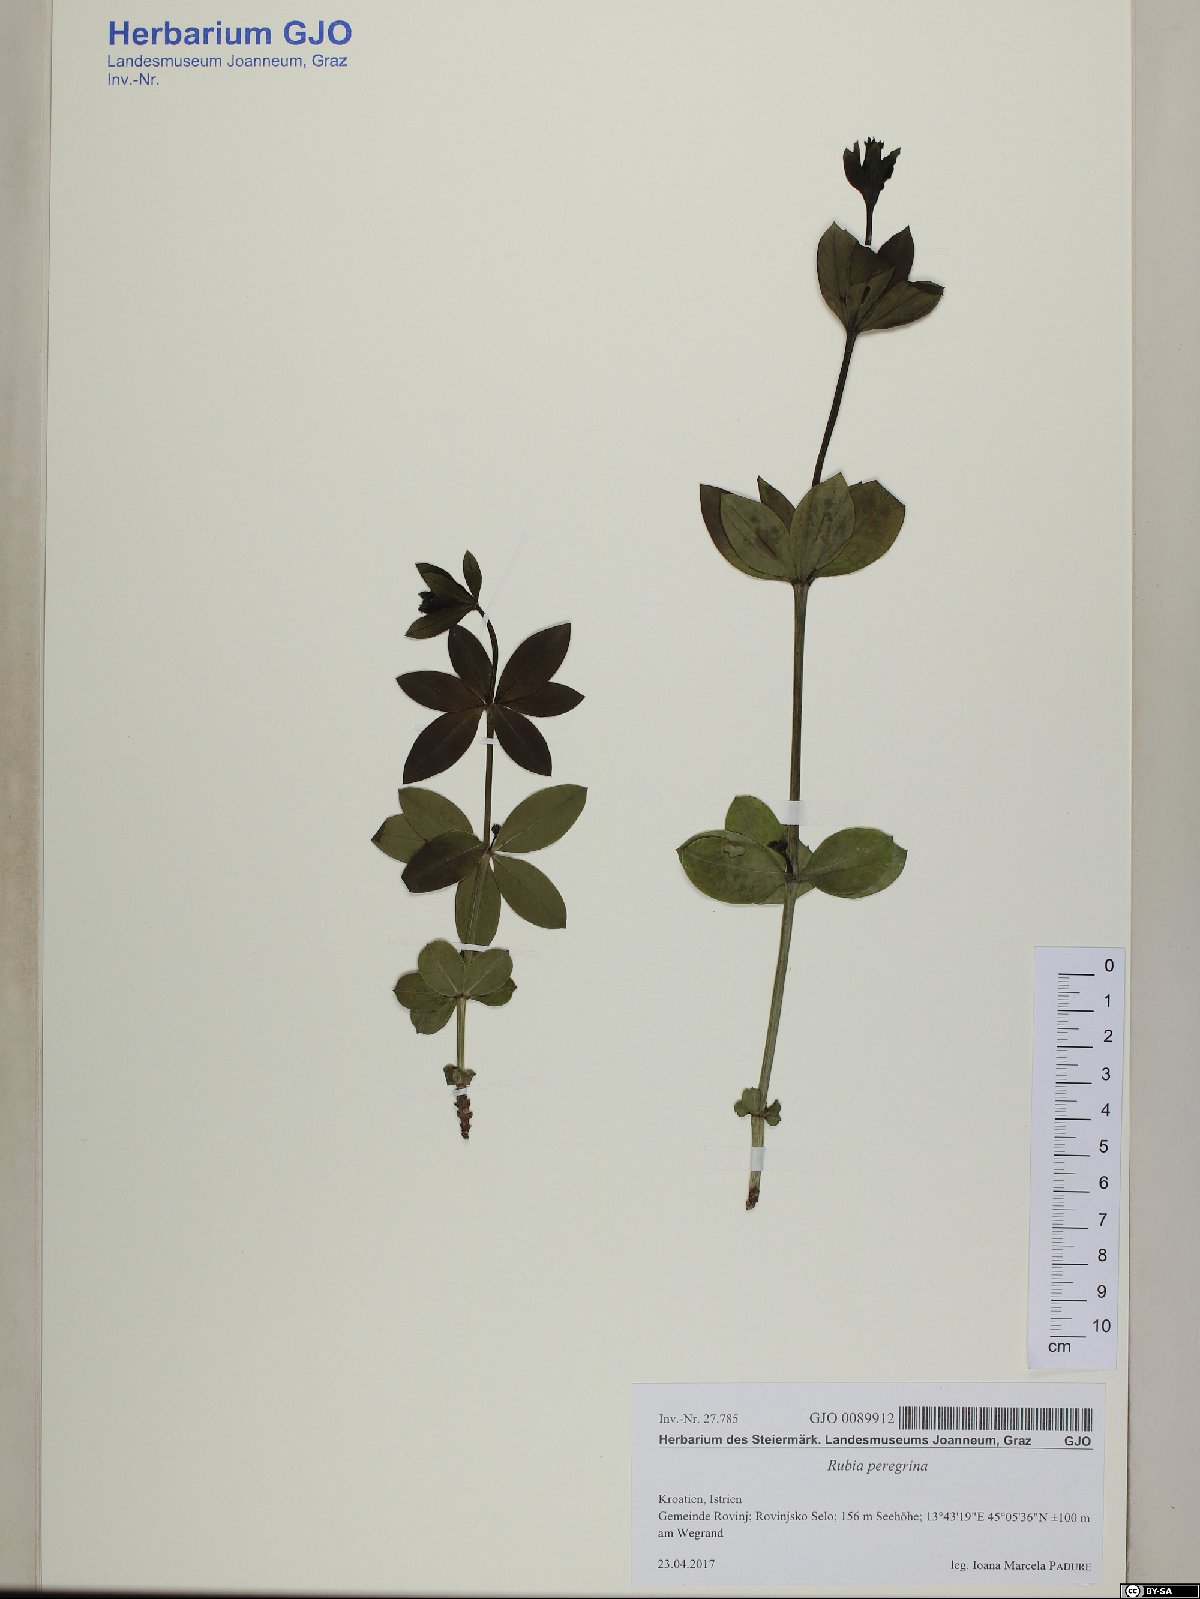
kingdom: Plantae
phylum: Tracheophyta
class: Magnoliopsida
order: Gentianales
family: Rubiaceae
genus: Rubia
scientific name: Rubia peregrina
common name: Wild madder
